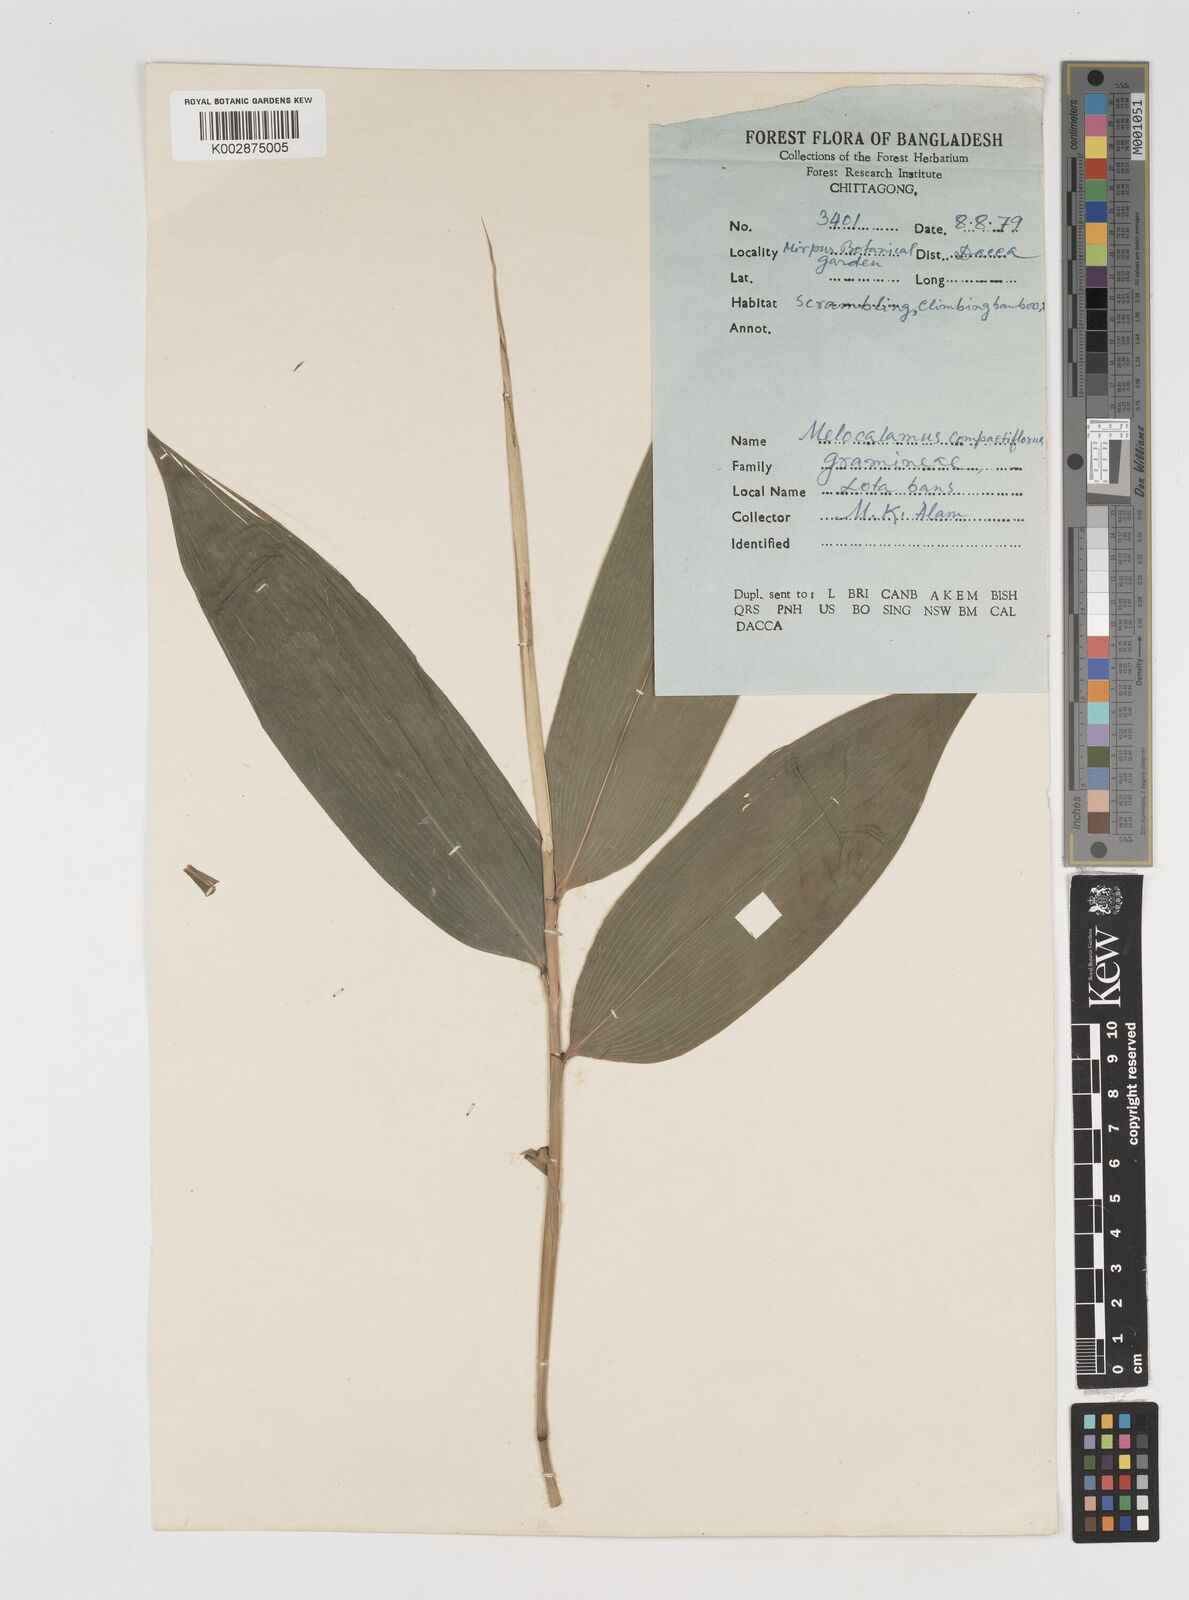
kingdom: Plantae
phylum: Tracheophyta
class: Liliopsida
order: Poales
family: Poaceae
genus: Melocalamus
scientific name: Melocalamus compactiflorus
